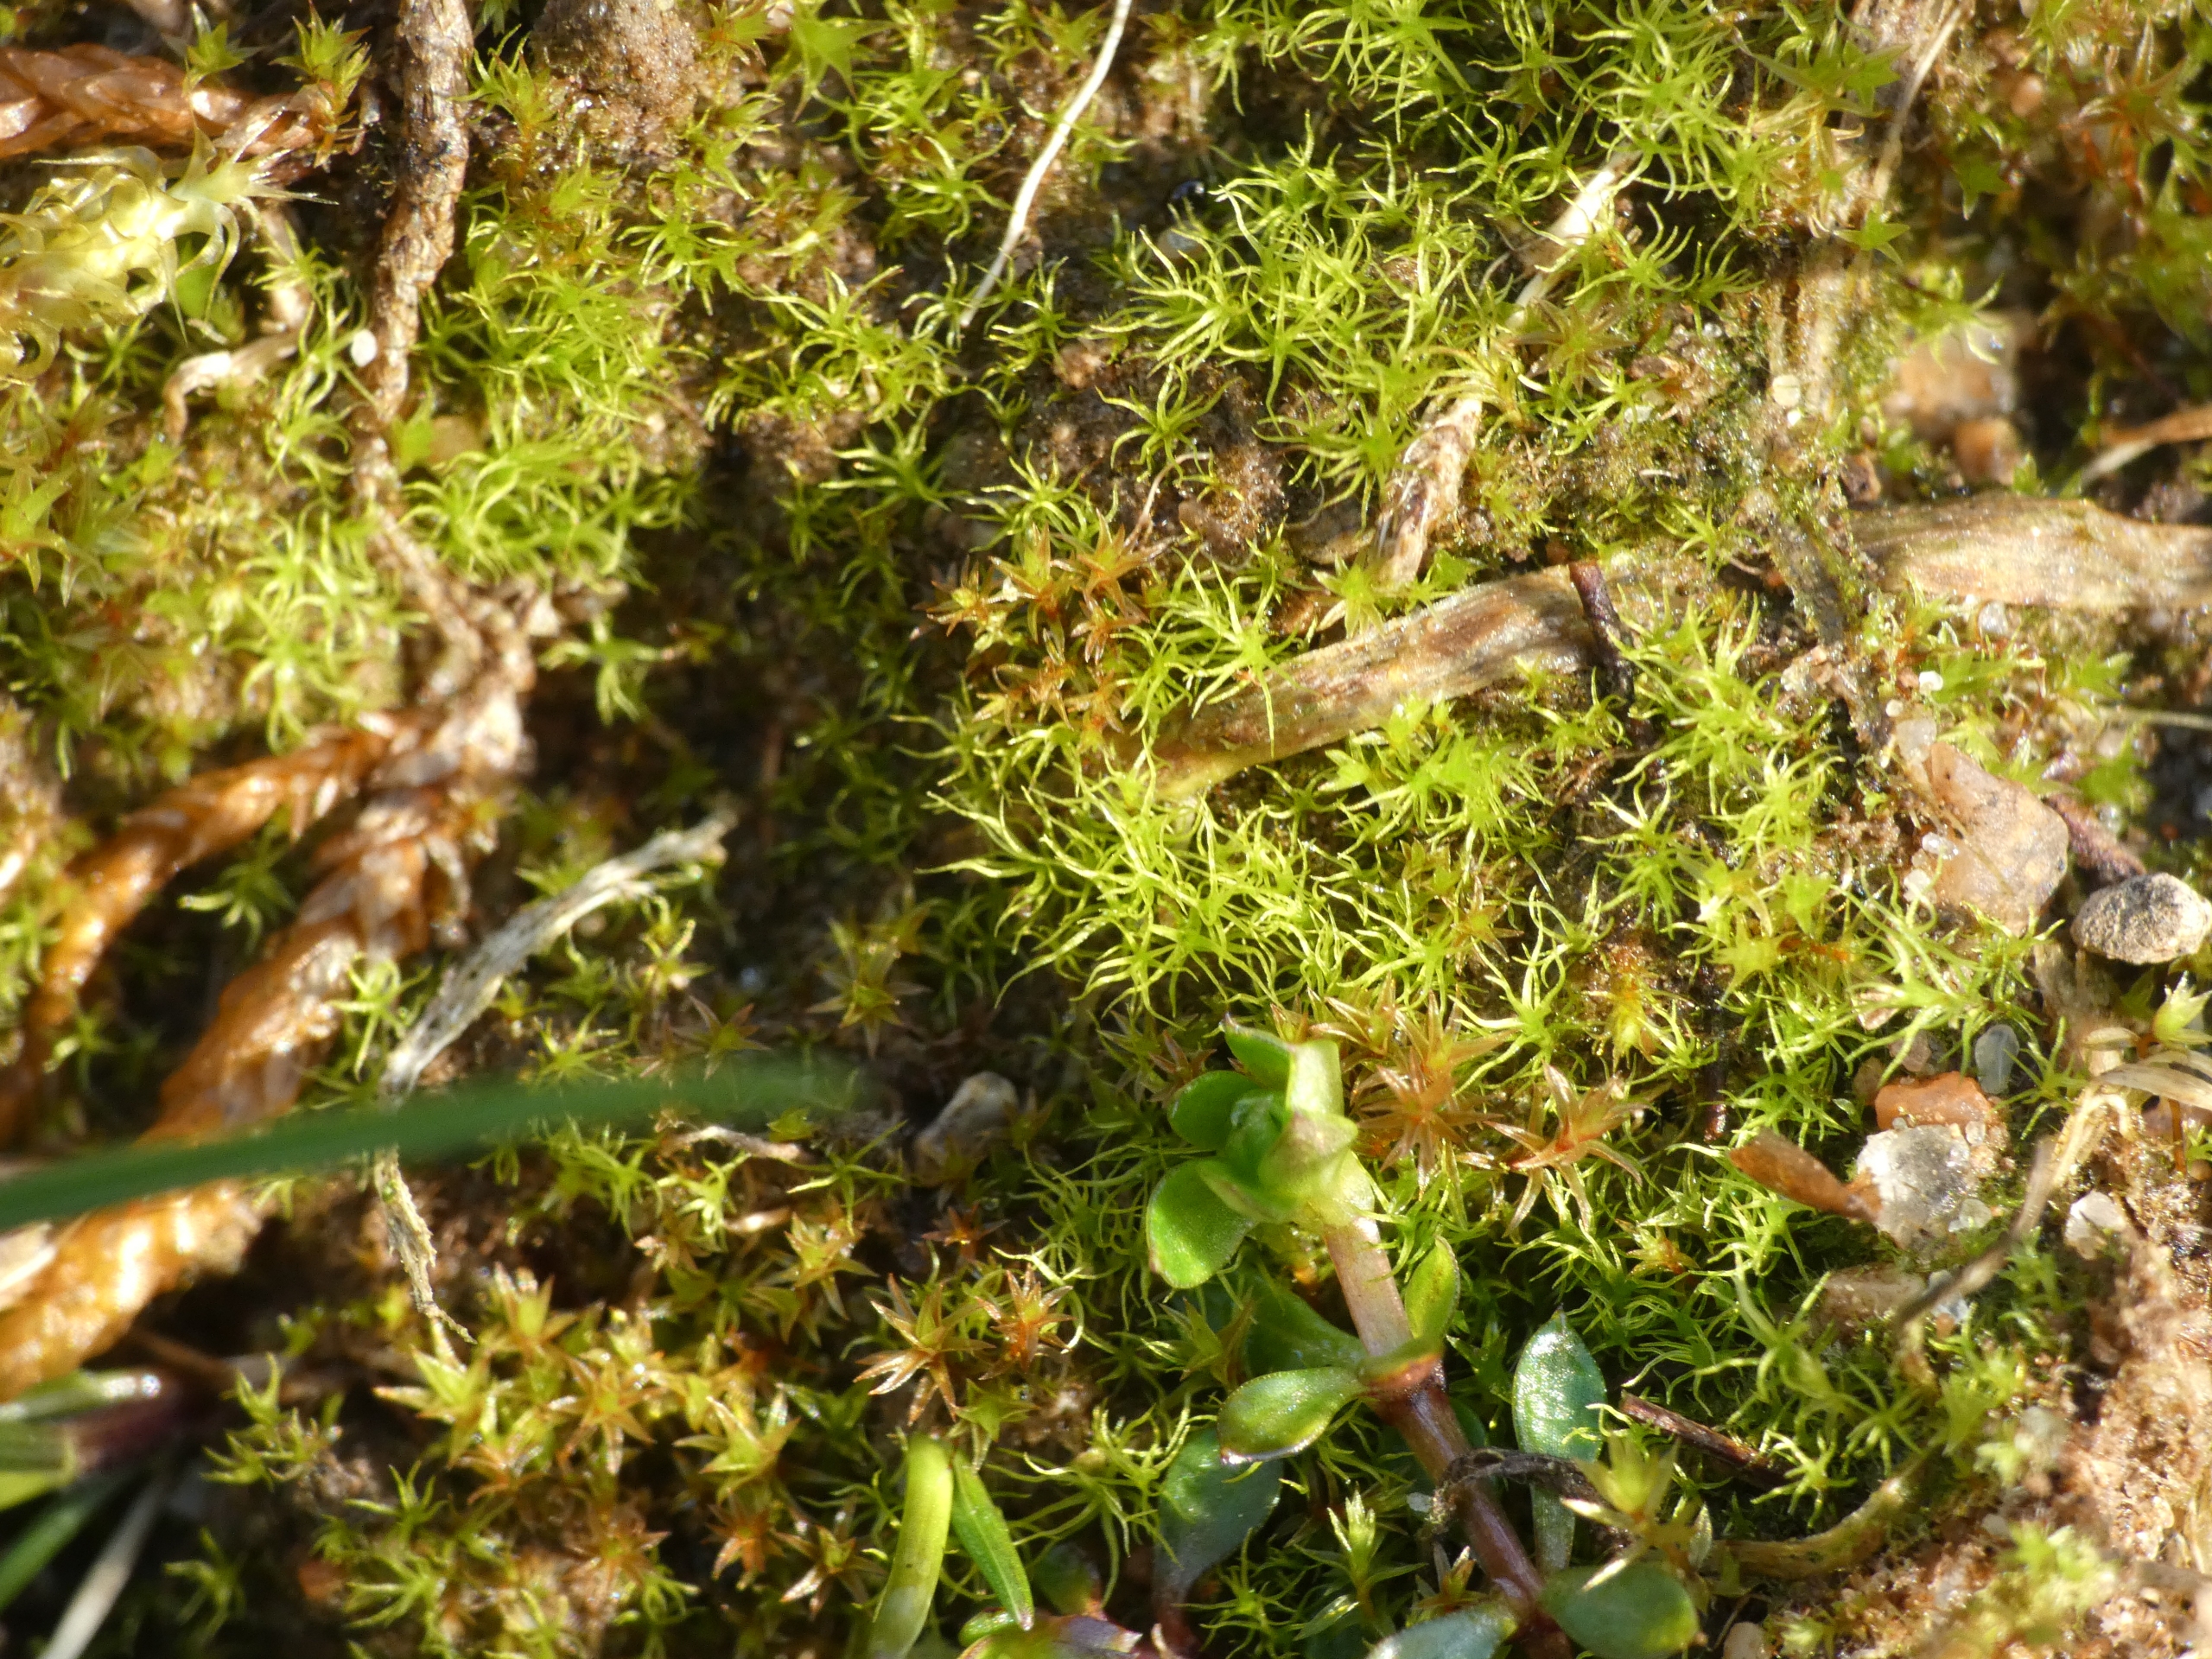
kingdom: Plantae
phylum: Bryophyta
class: Bryopsida
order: Dicranales
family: Ditrichaceae
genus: Trichodon
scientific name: Trichodon cylindricus
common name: Udspærret hårtand
